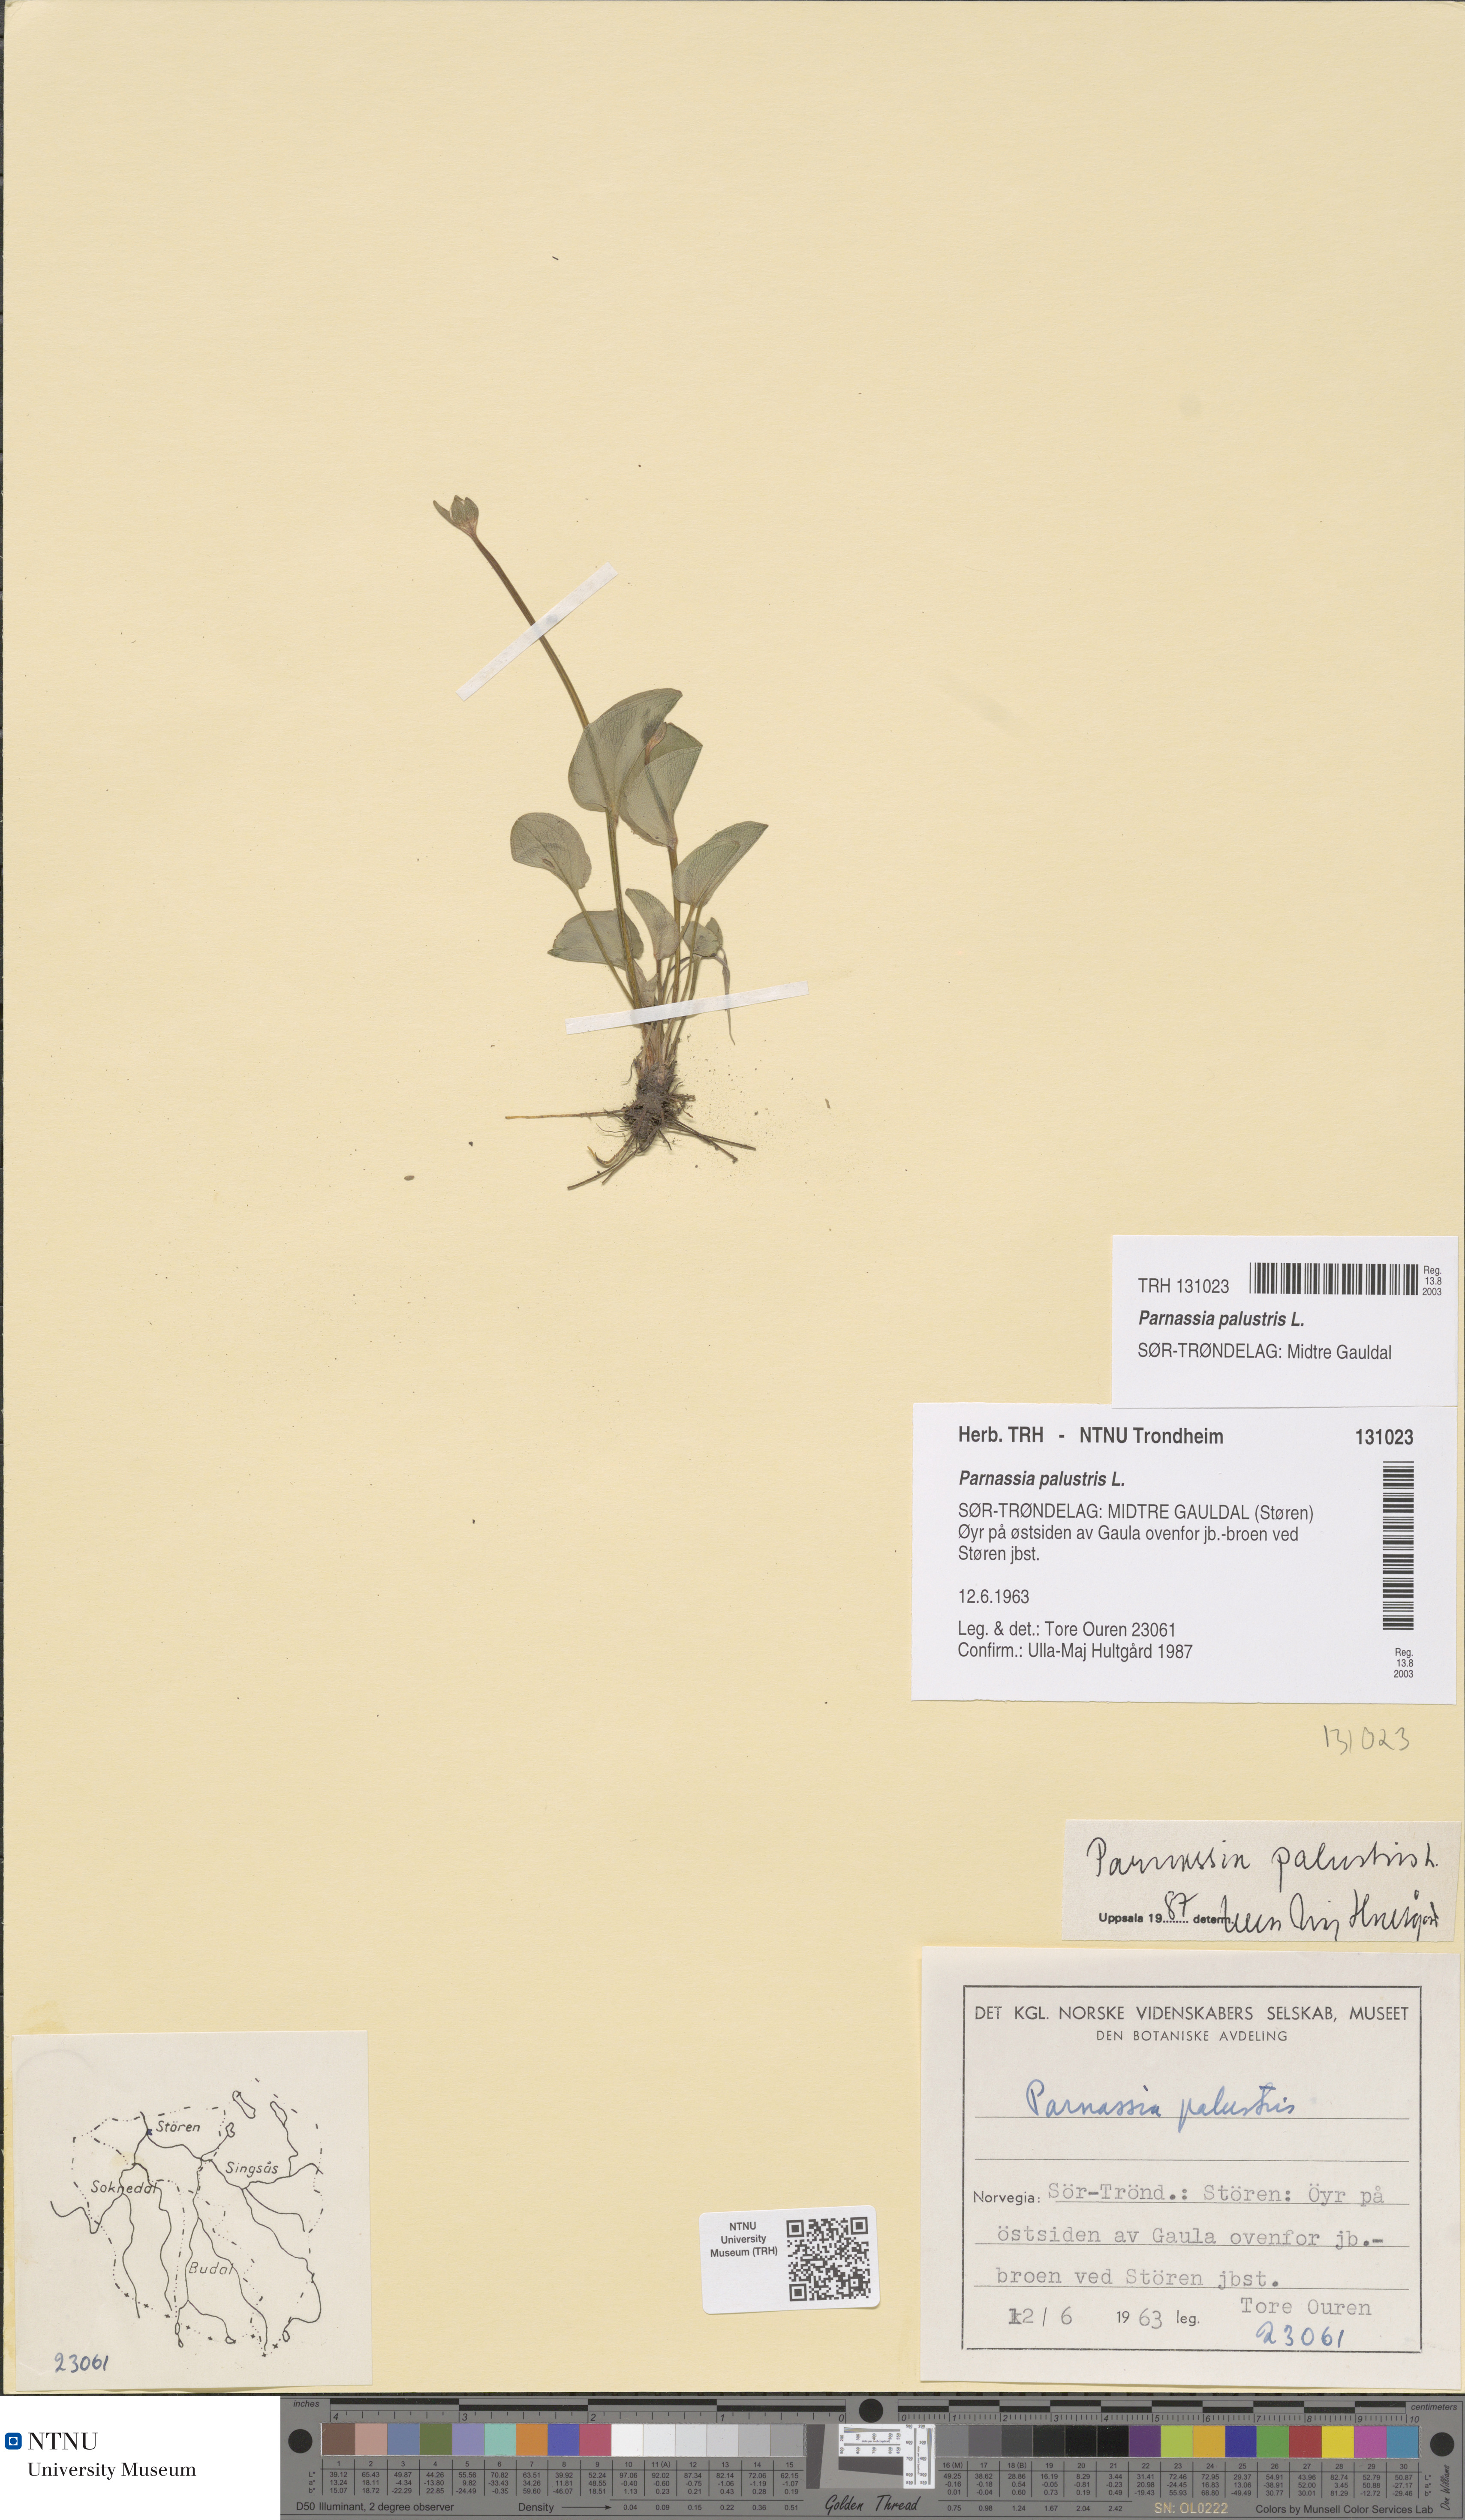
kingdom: Plantae
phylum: Tracheophyta
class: Magnoliopsida
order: Celastrales
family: Parnassiaceae
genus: Parnassia
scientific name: Parnassia palustris
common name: Grass-of-parnassus
